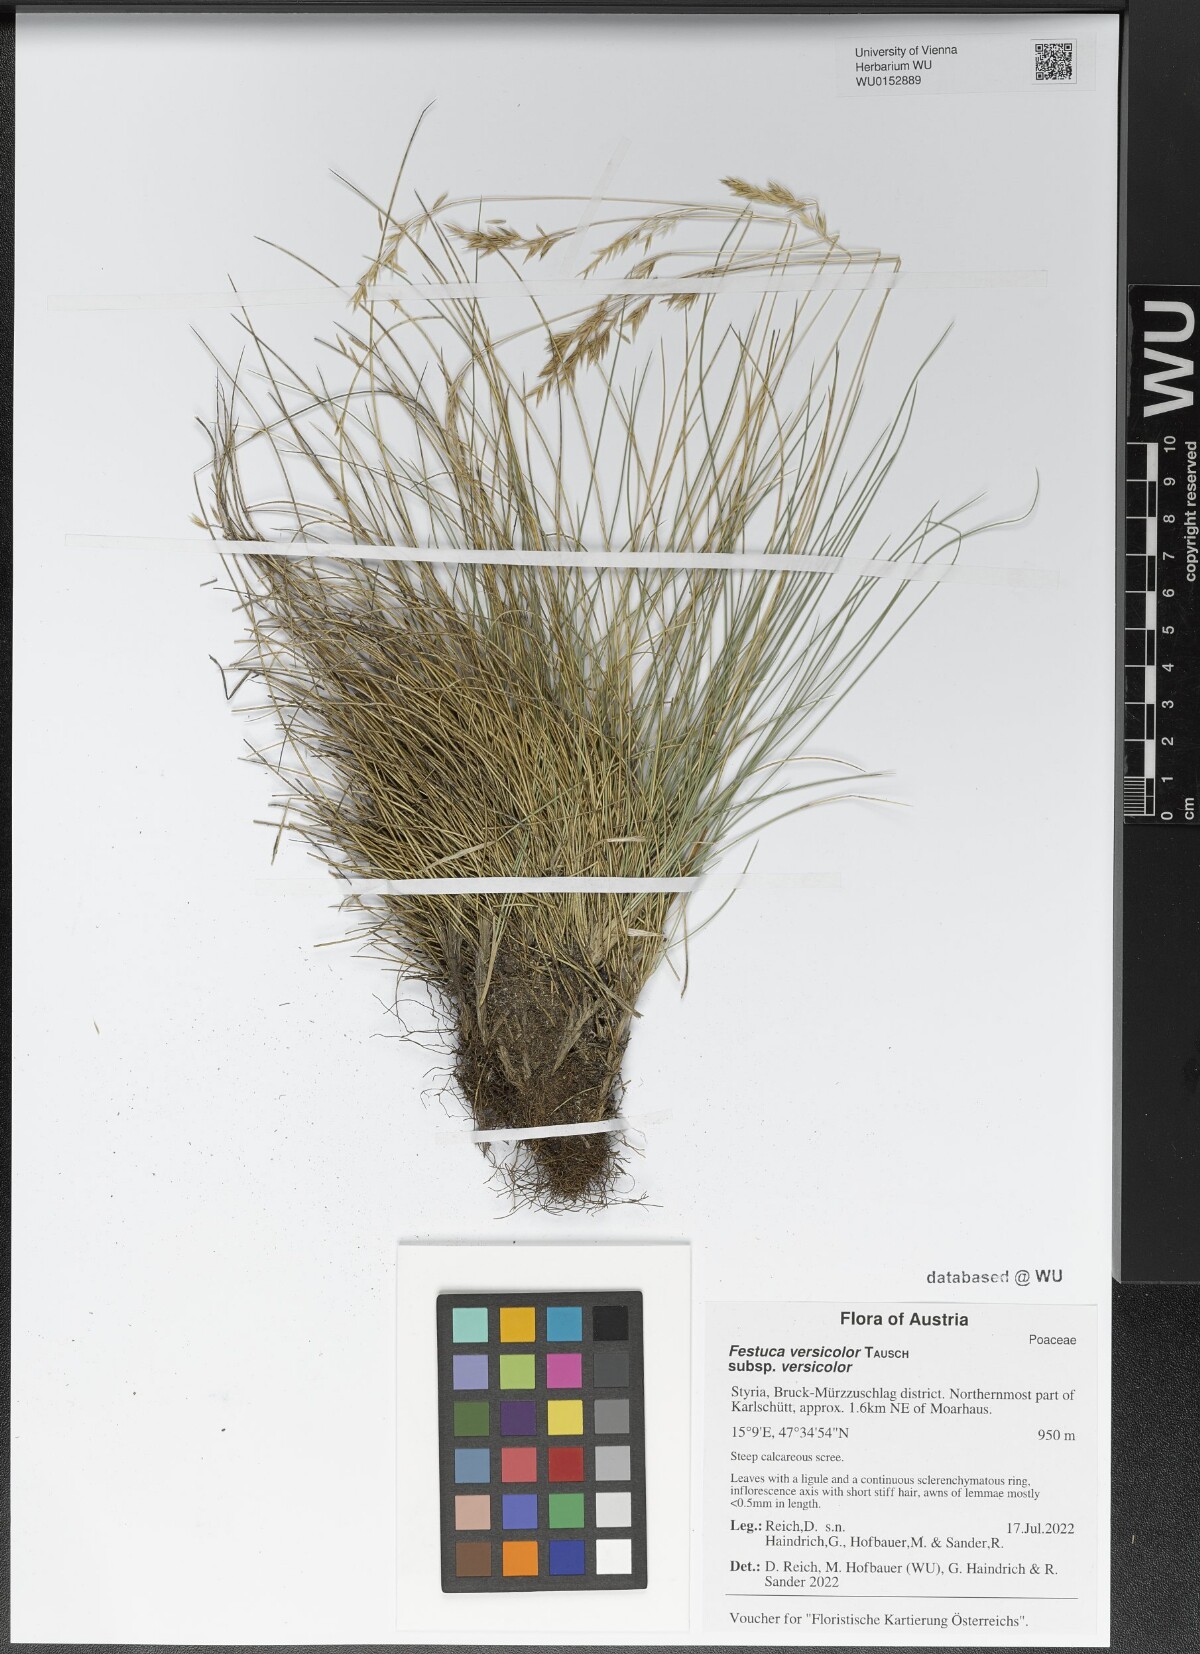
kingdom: Plantae
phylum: Tracheophyta
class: Liliopsida
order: Poales
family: Poaceae
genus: Festuca
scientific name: Festuca versicolor
